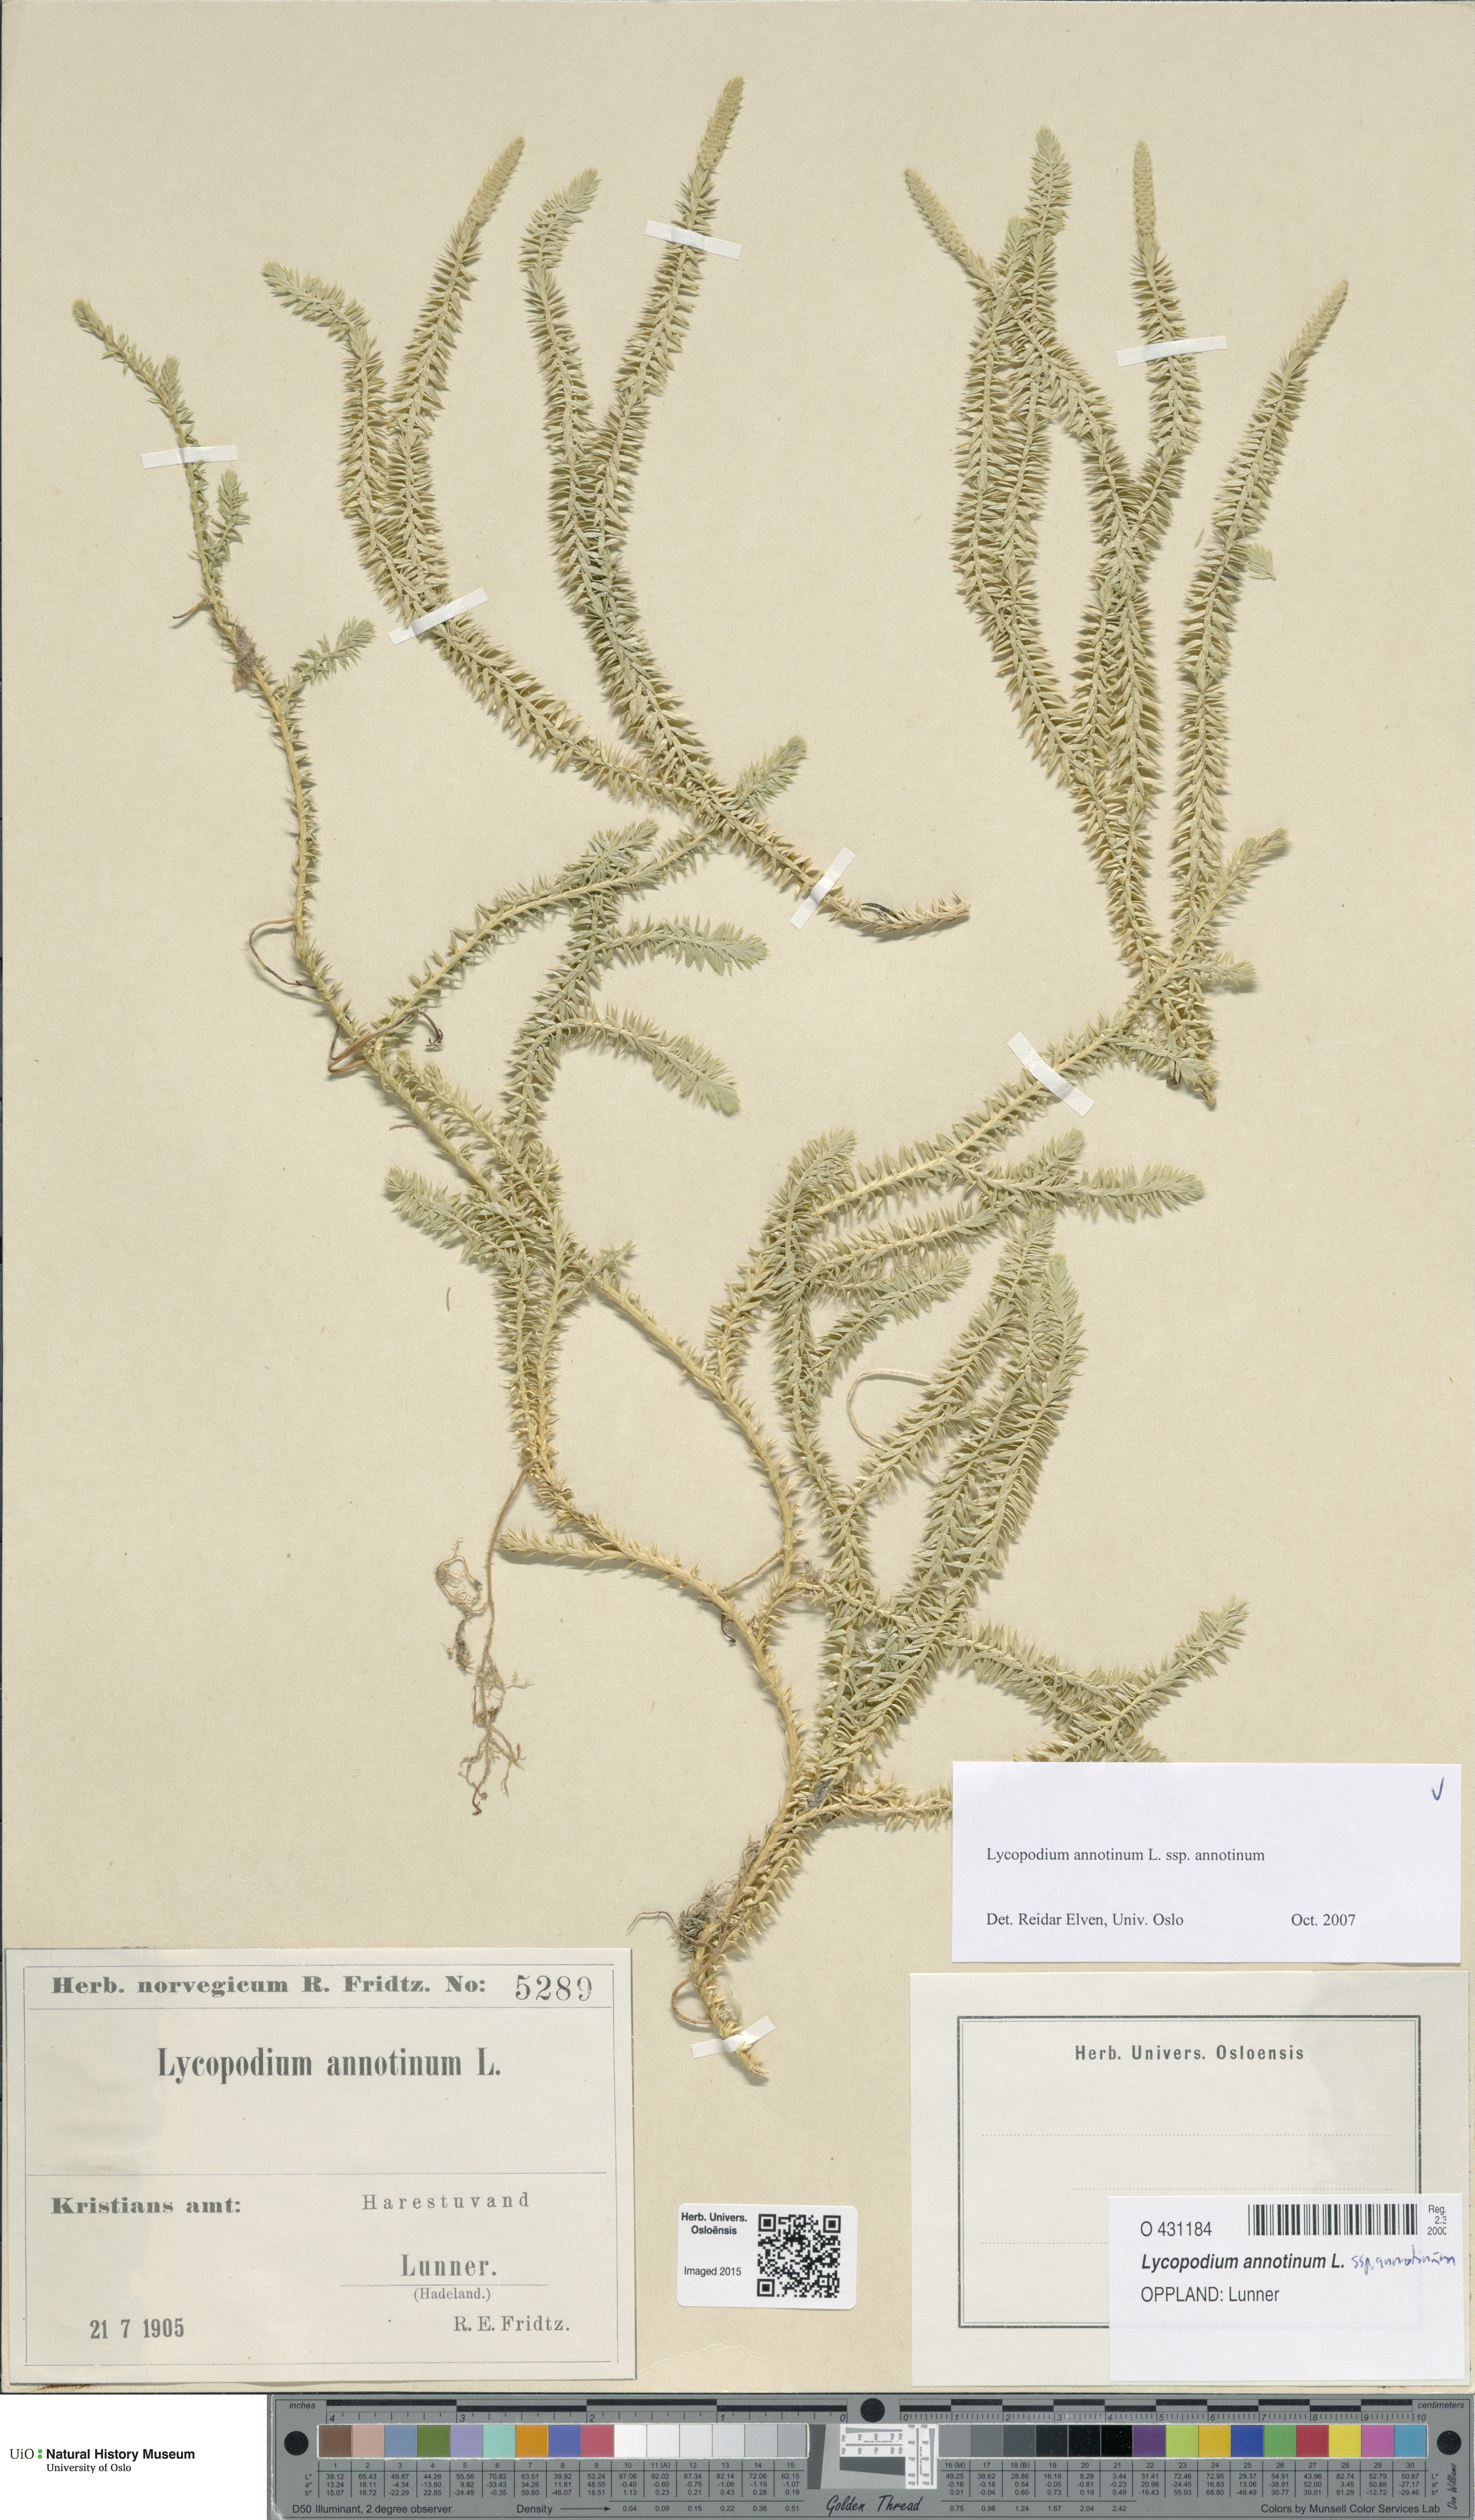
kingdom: Plantae
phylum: Tracheophyta
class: Lycopodiopsida
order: Lycopodiales
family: Lycopodiaceae
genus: Spinulum
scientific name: Spinulum annotinum
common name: Interrupted club-moss
